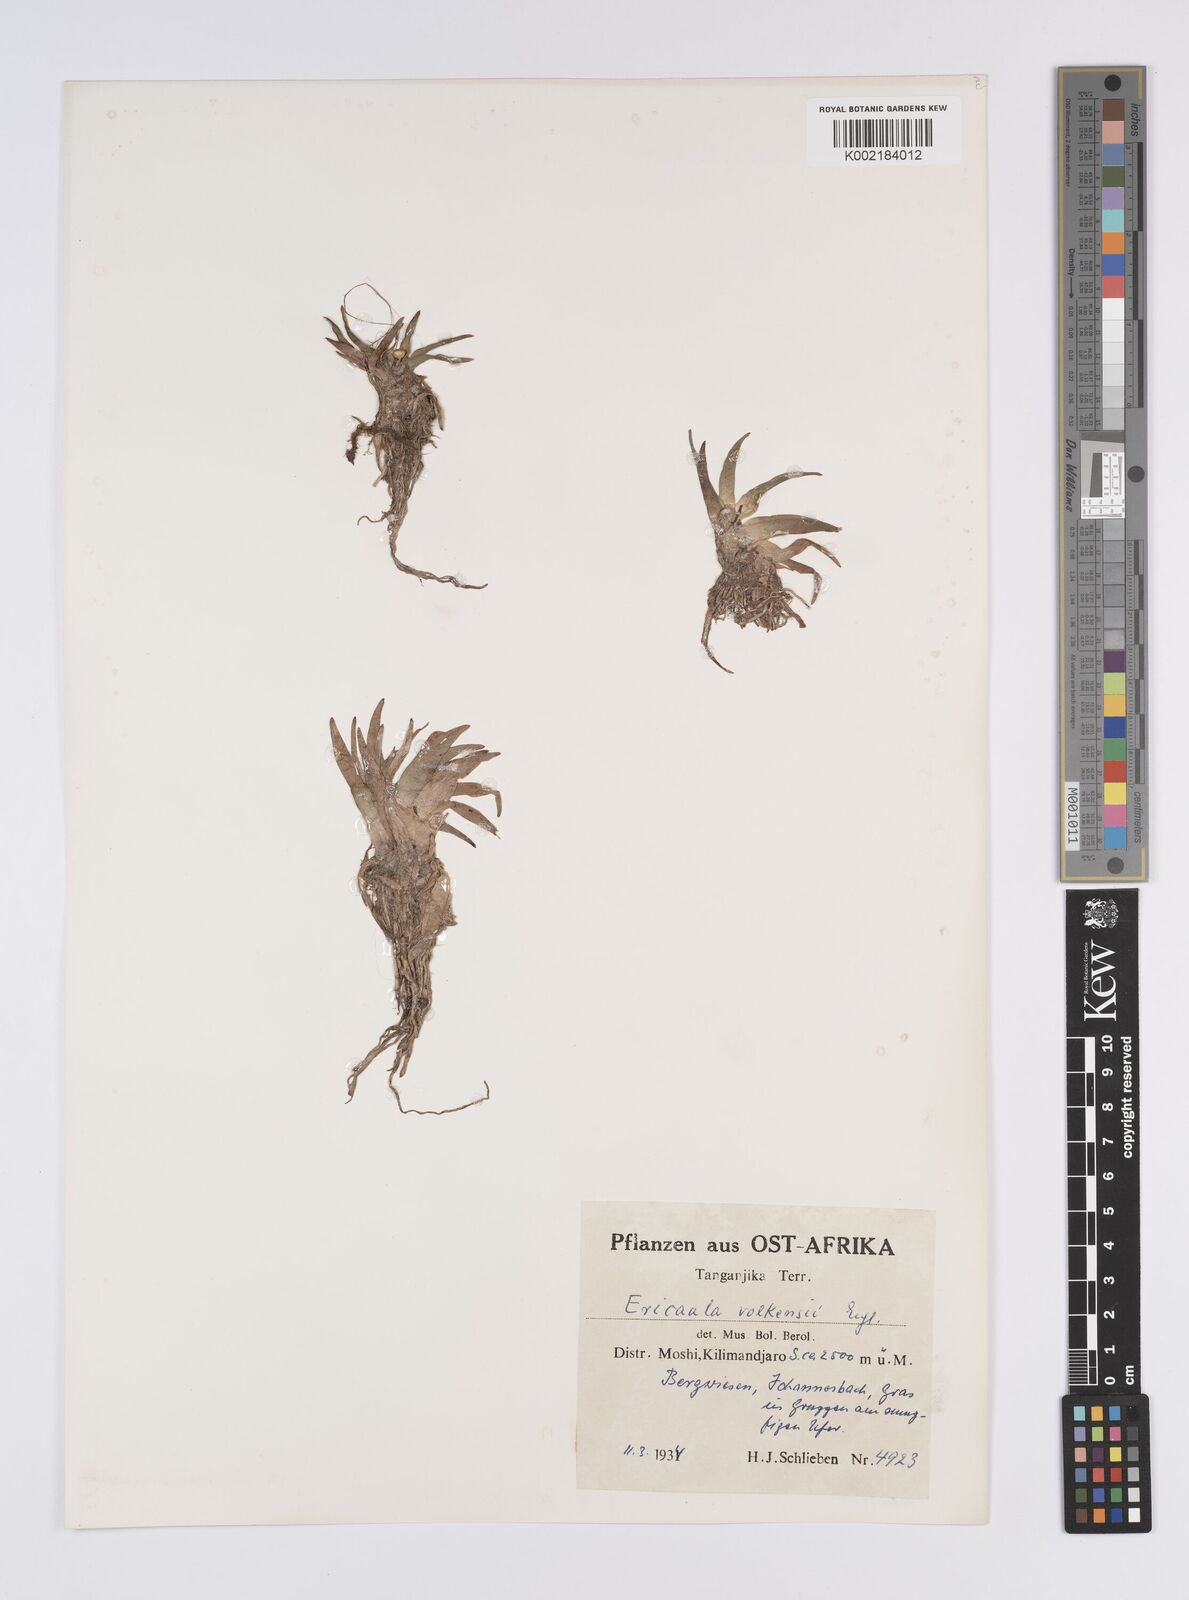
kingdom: Plantae
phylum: Tracheophyta
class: Liliopsida
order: Poales
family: Eriocaulaceae
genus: Eriocaulon
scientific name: Eriocaulon volkensii
